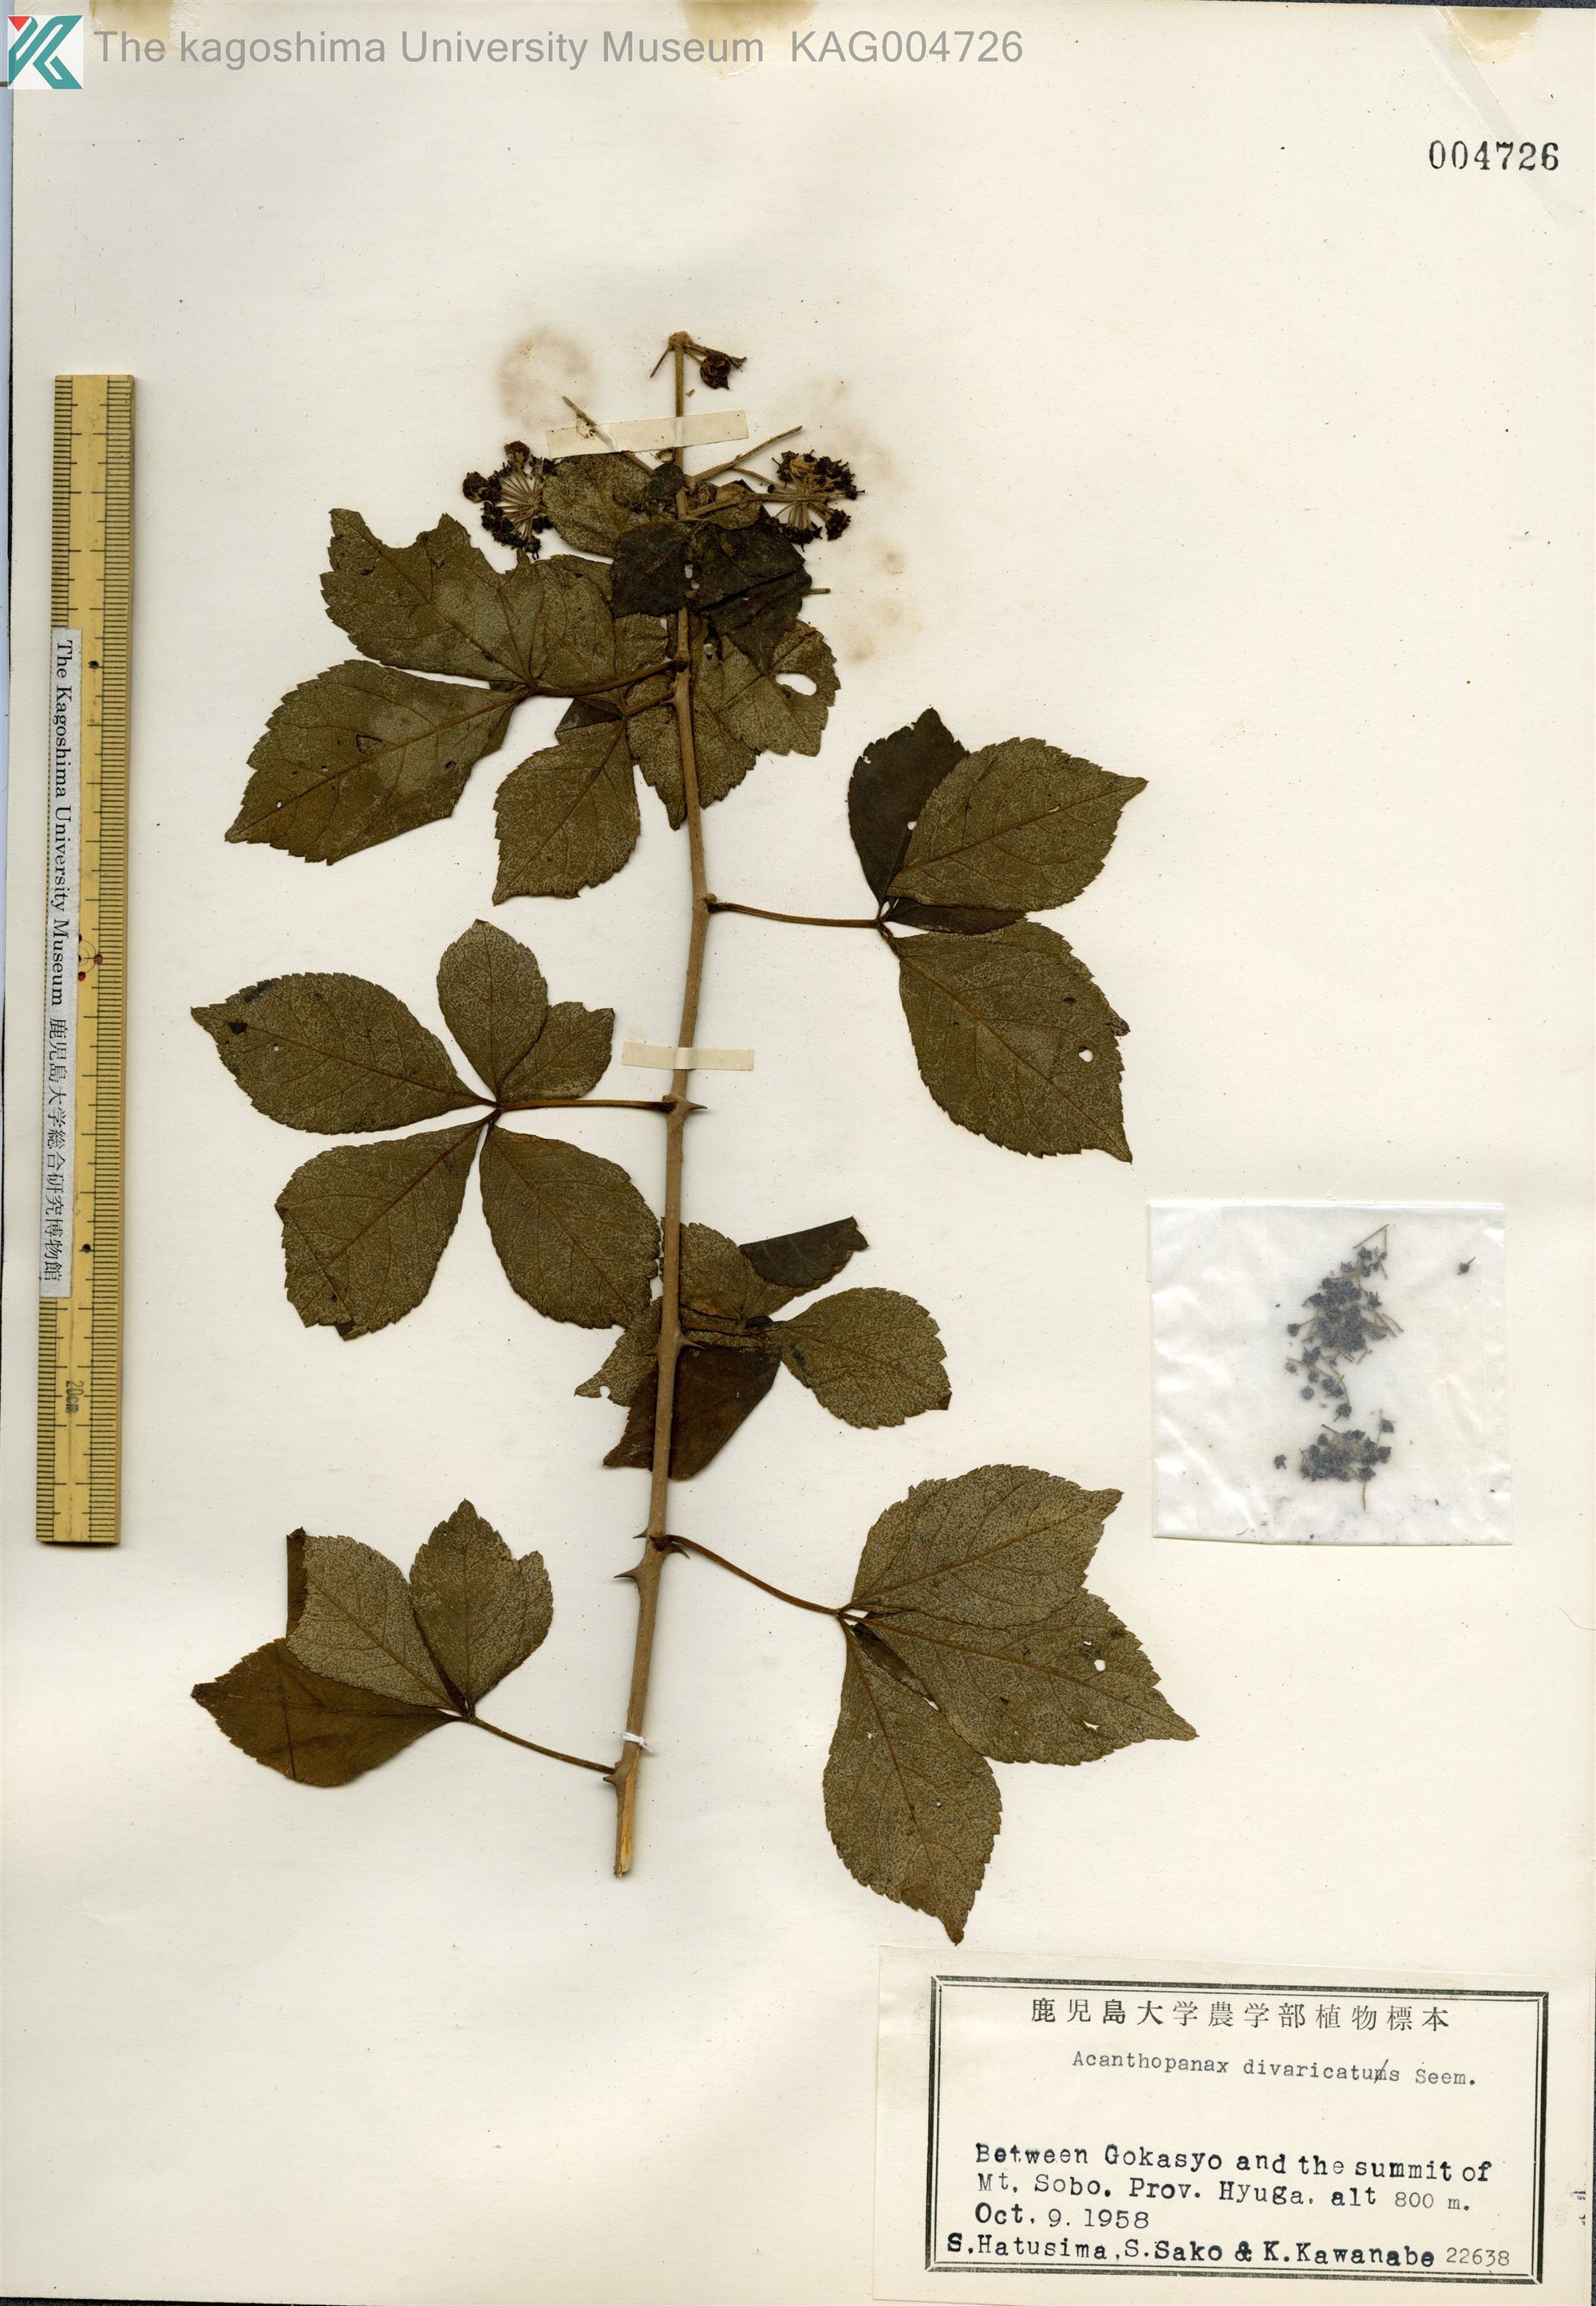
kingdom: Plantae
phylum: Tracheophyta
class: Magnoliopsida
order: Apiales
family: Araliaceae
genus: Eleutherococcus
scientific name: Eleutherococcus divaricatus
